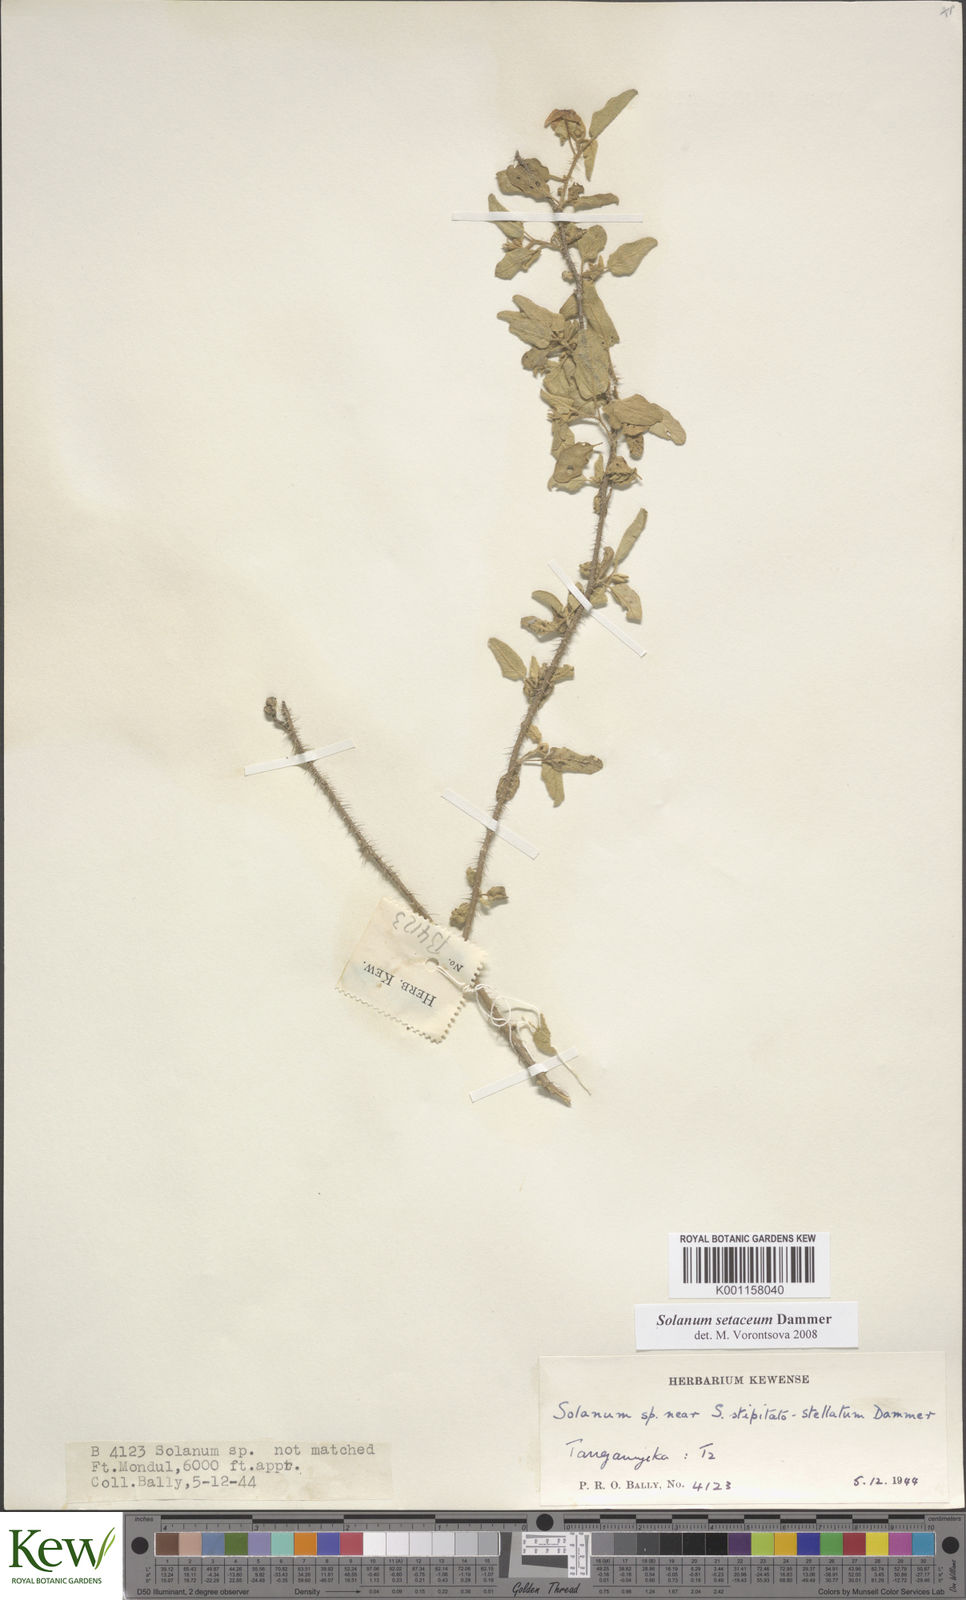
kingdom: Plantae
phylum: Tracheophyta
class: Magnoliopsida
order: Solanales
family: Solanaceae
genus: Solanum
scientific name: Solanum setaceum
